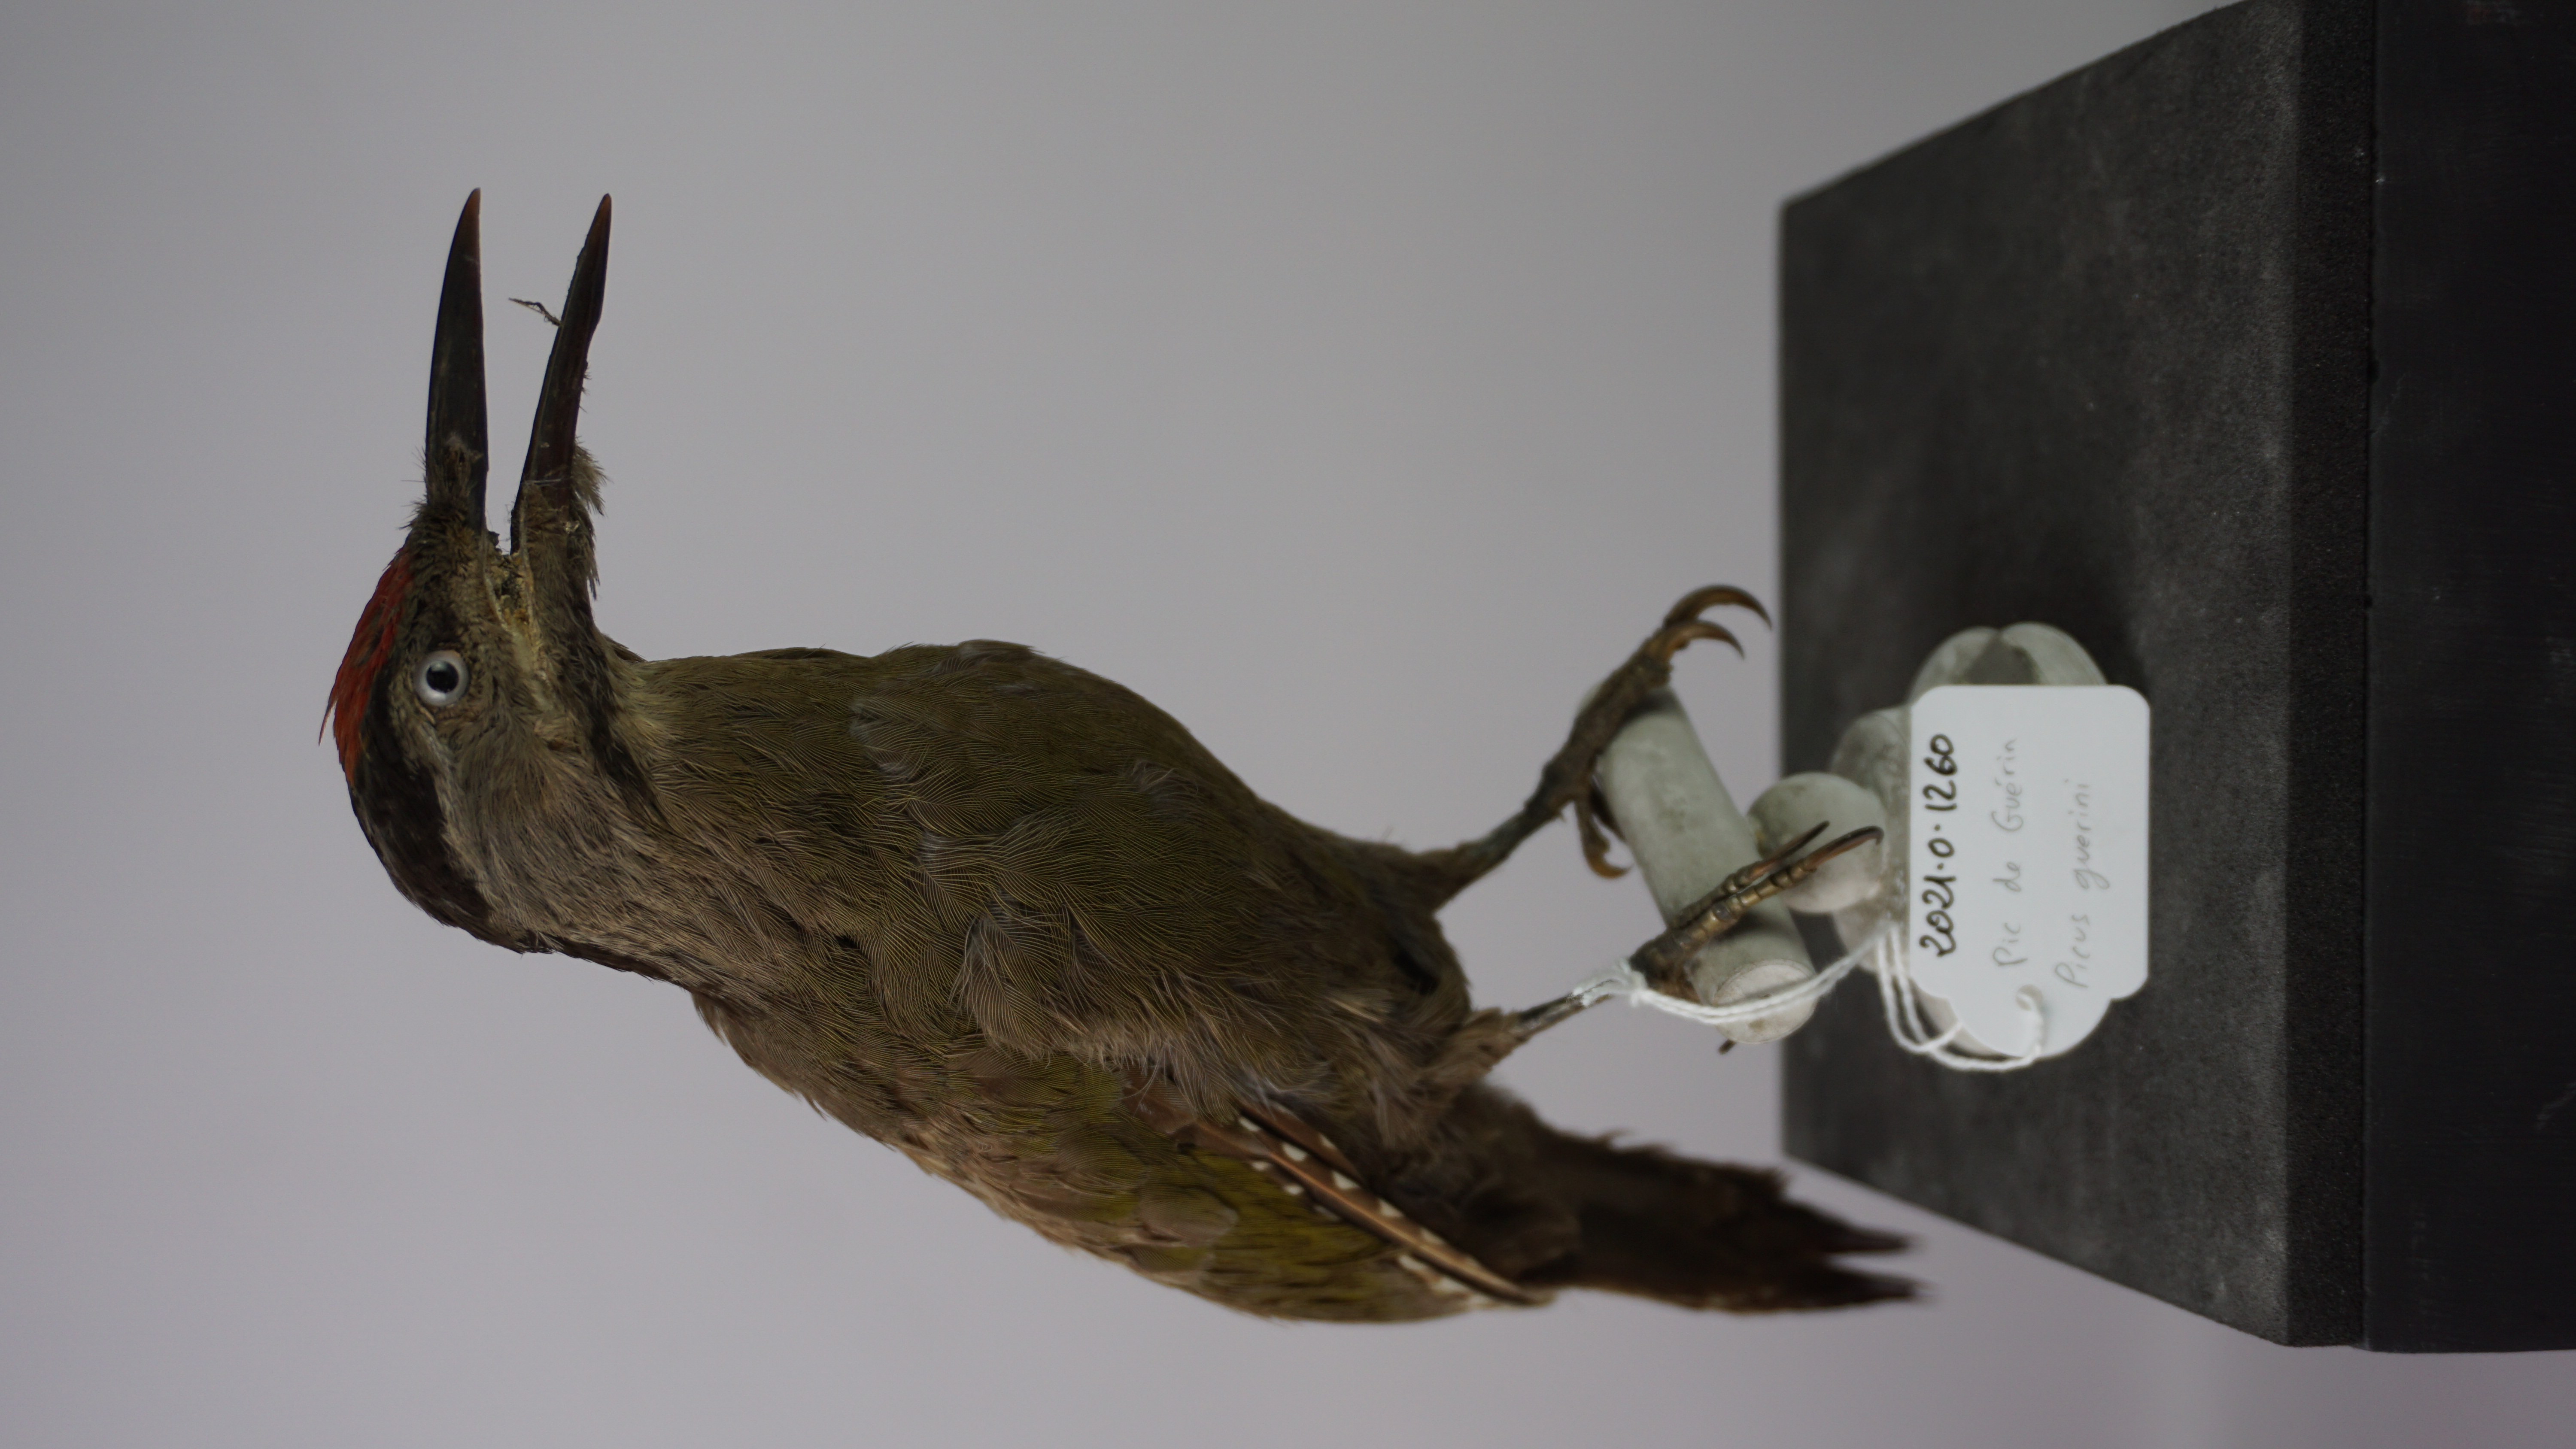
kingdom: Animalia
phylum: Chordata
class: Aves
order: Piciformes
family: Picidae
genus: Picus
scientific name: Picus canus
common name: Grey-headed woodpecker
